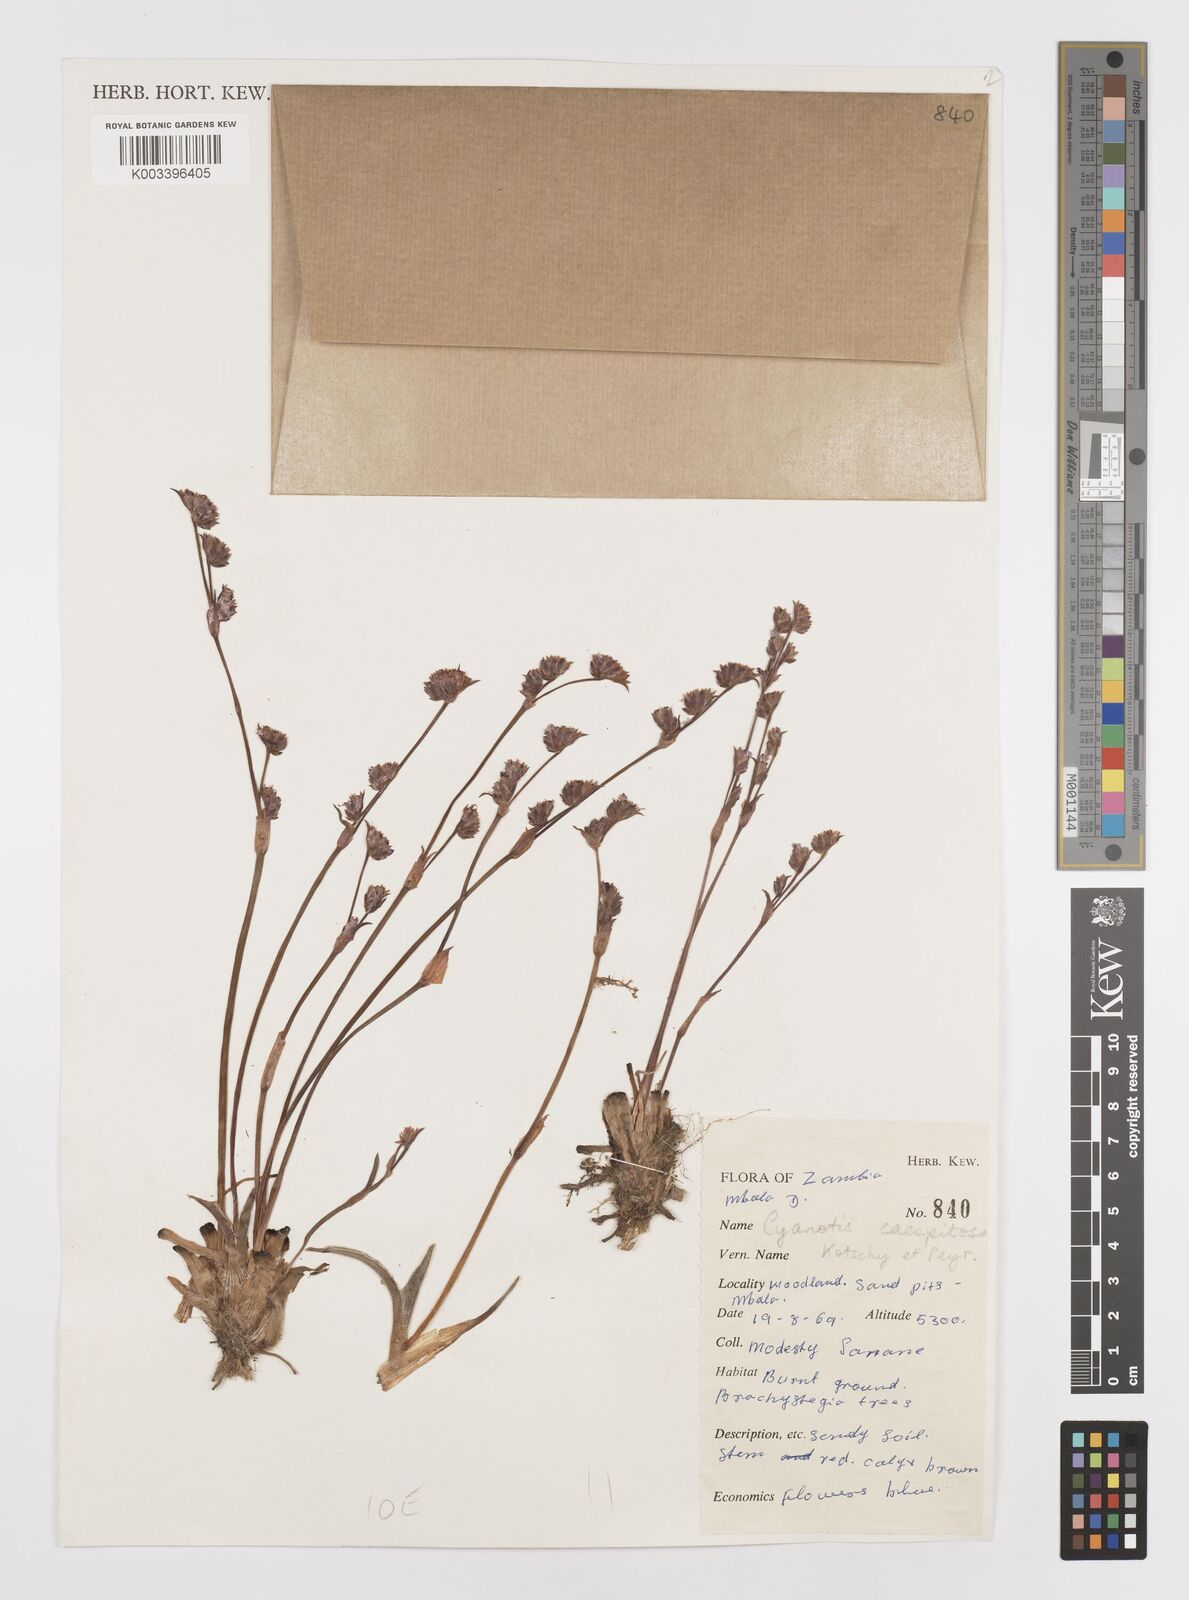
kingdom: Plantae
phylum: Tracheophyta
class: Liliopsida
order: Commelinales
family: Commelinaceae
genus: Cyanotis
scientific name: Cyanotis caespitosa
